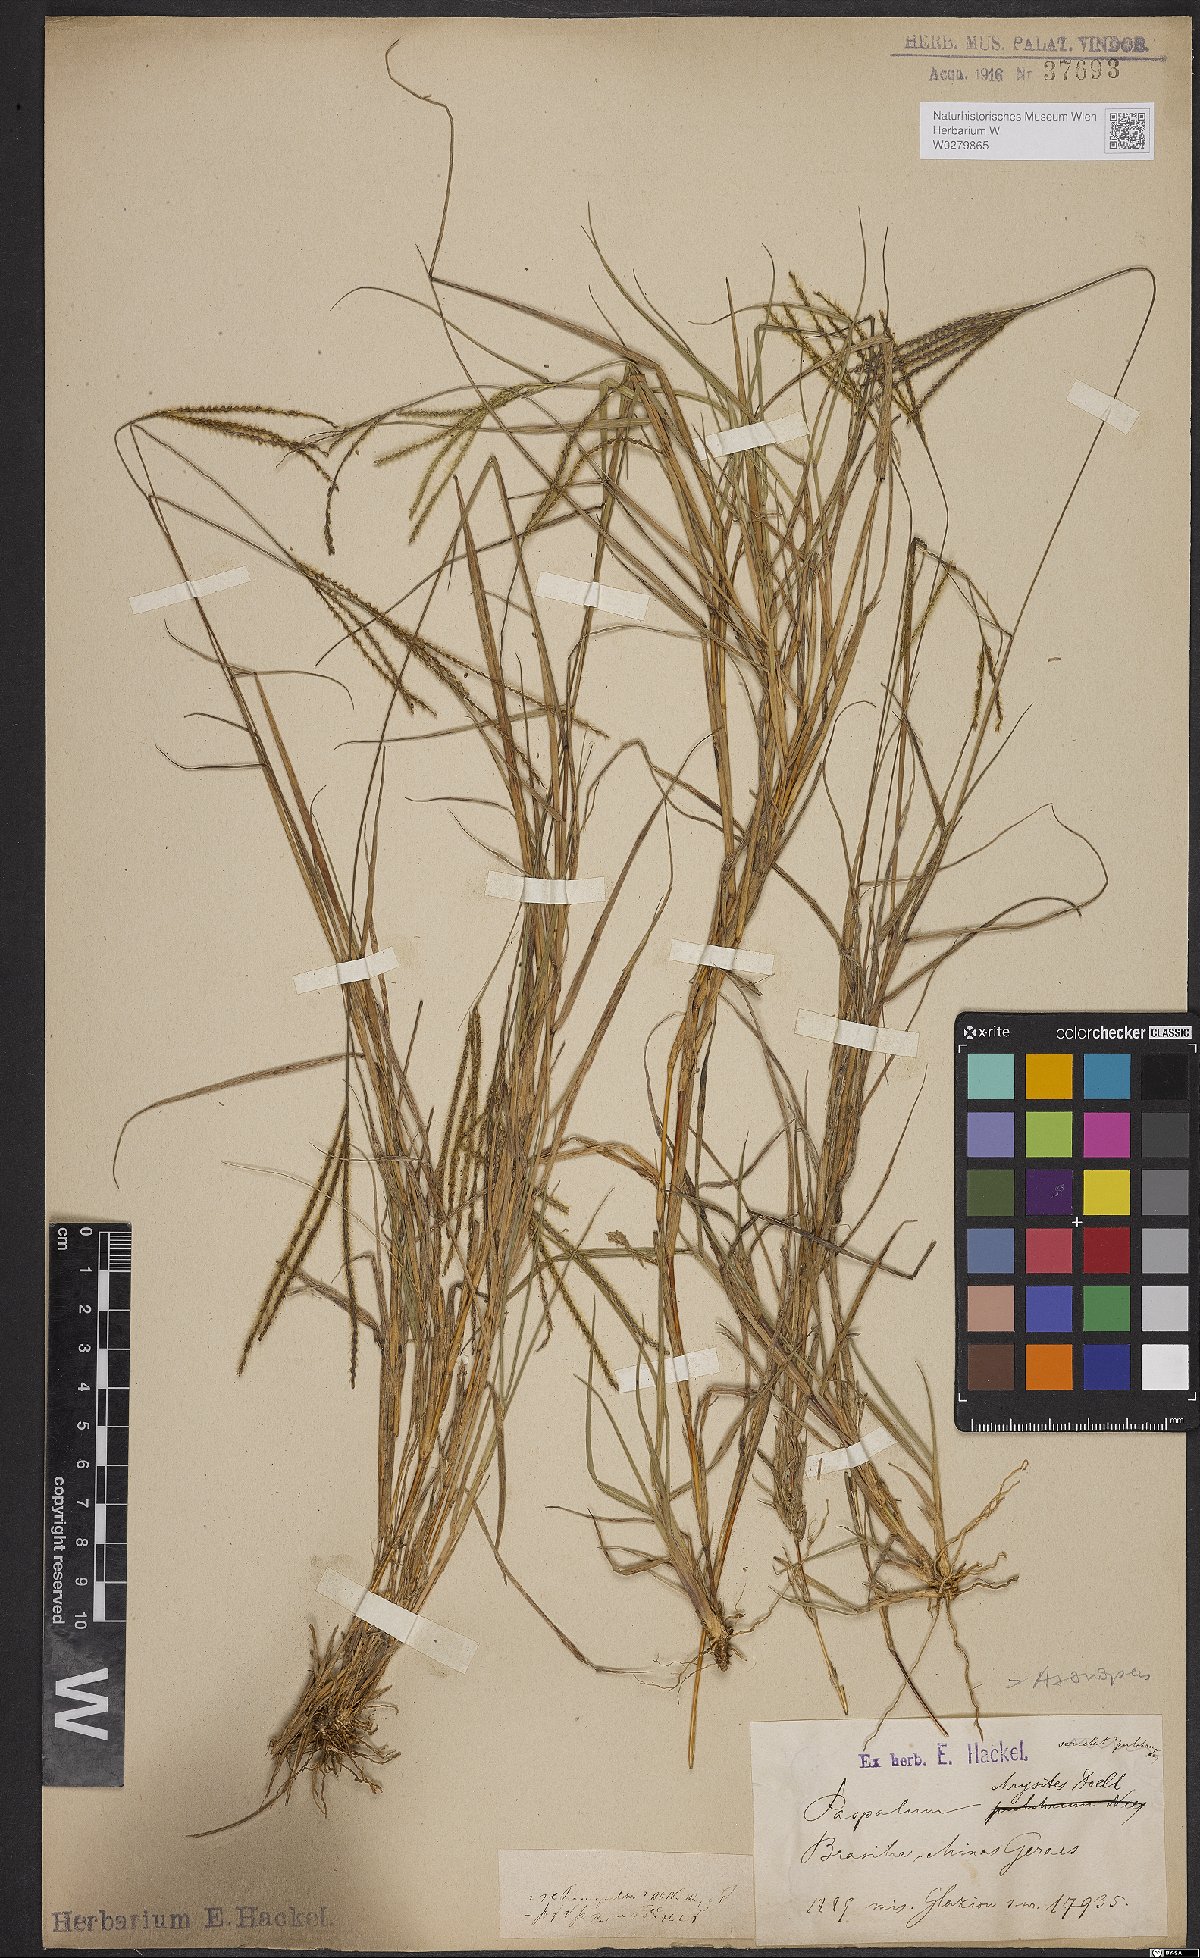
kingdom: Plantae
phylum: Tracheophyta
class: Liliopsida
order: Poales
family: Poaceae
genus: Axonopus
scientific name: Axonopus aureus
